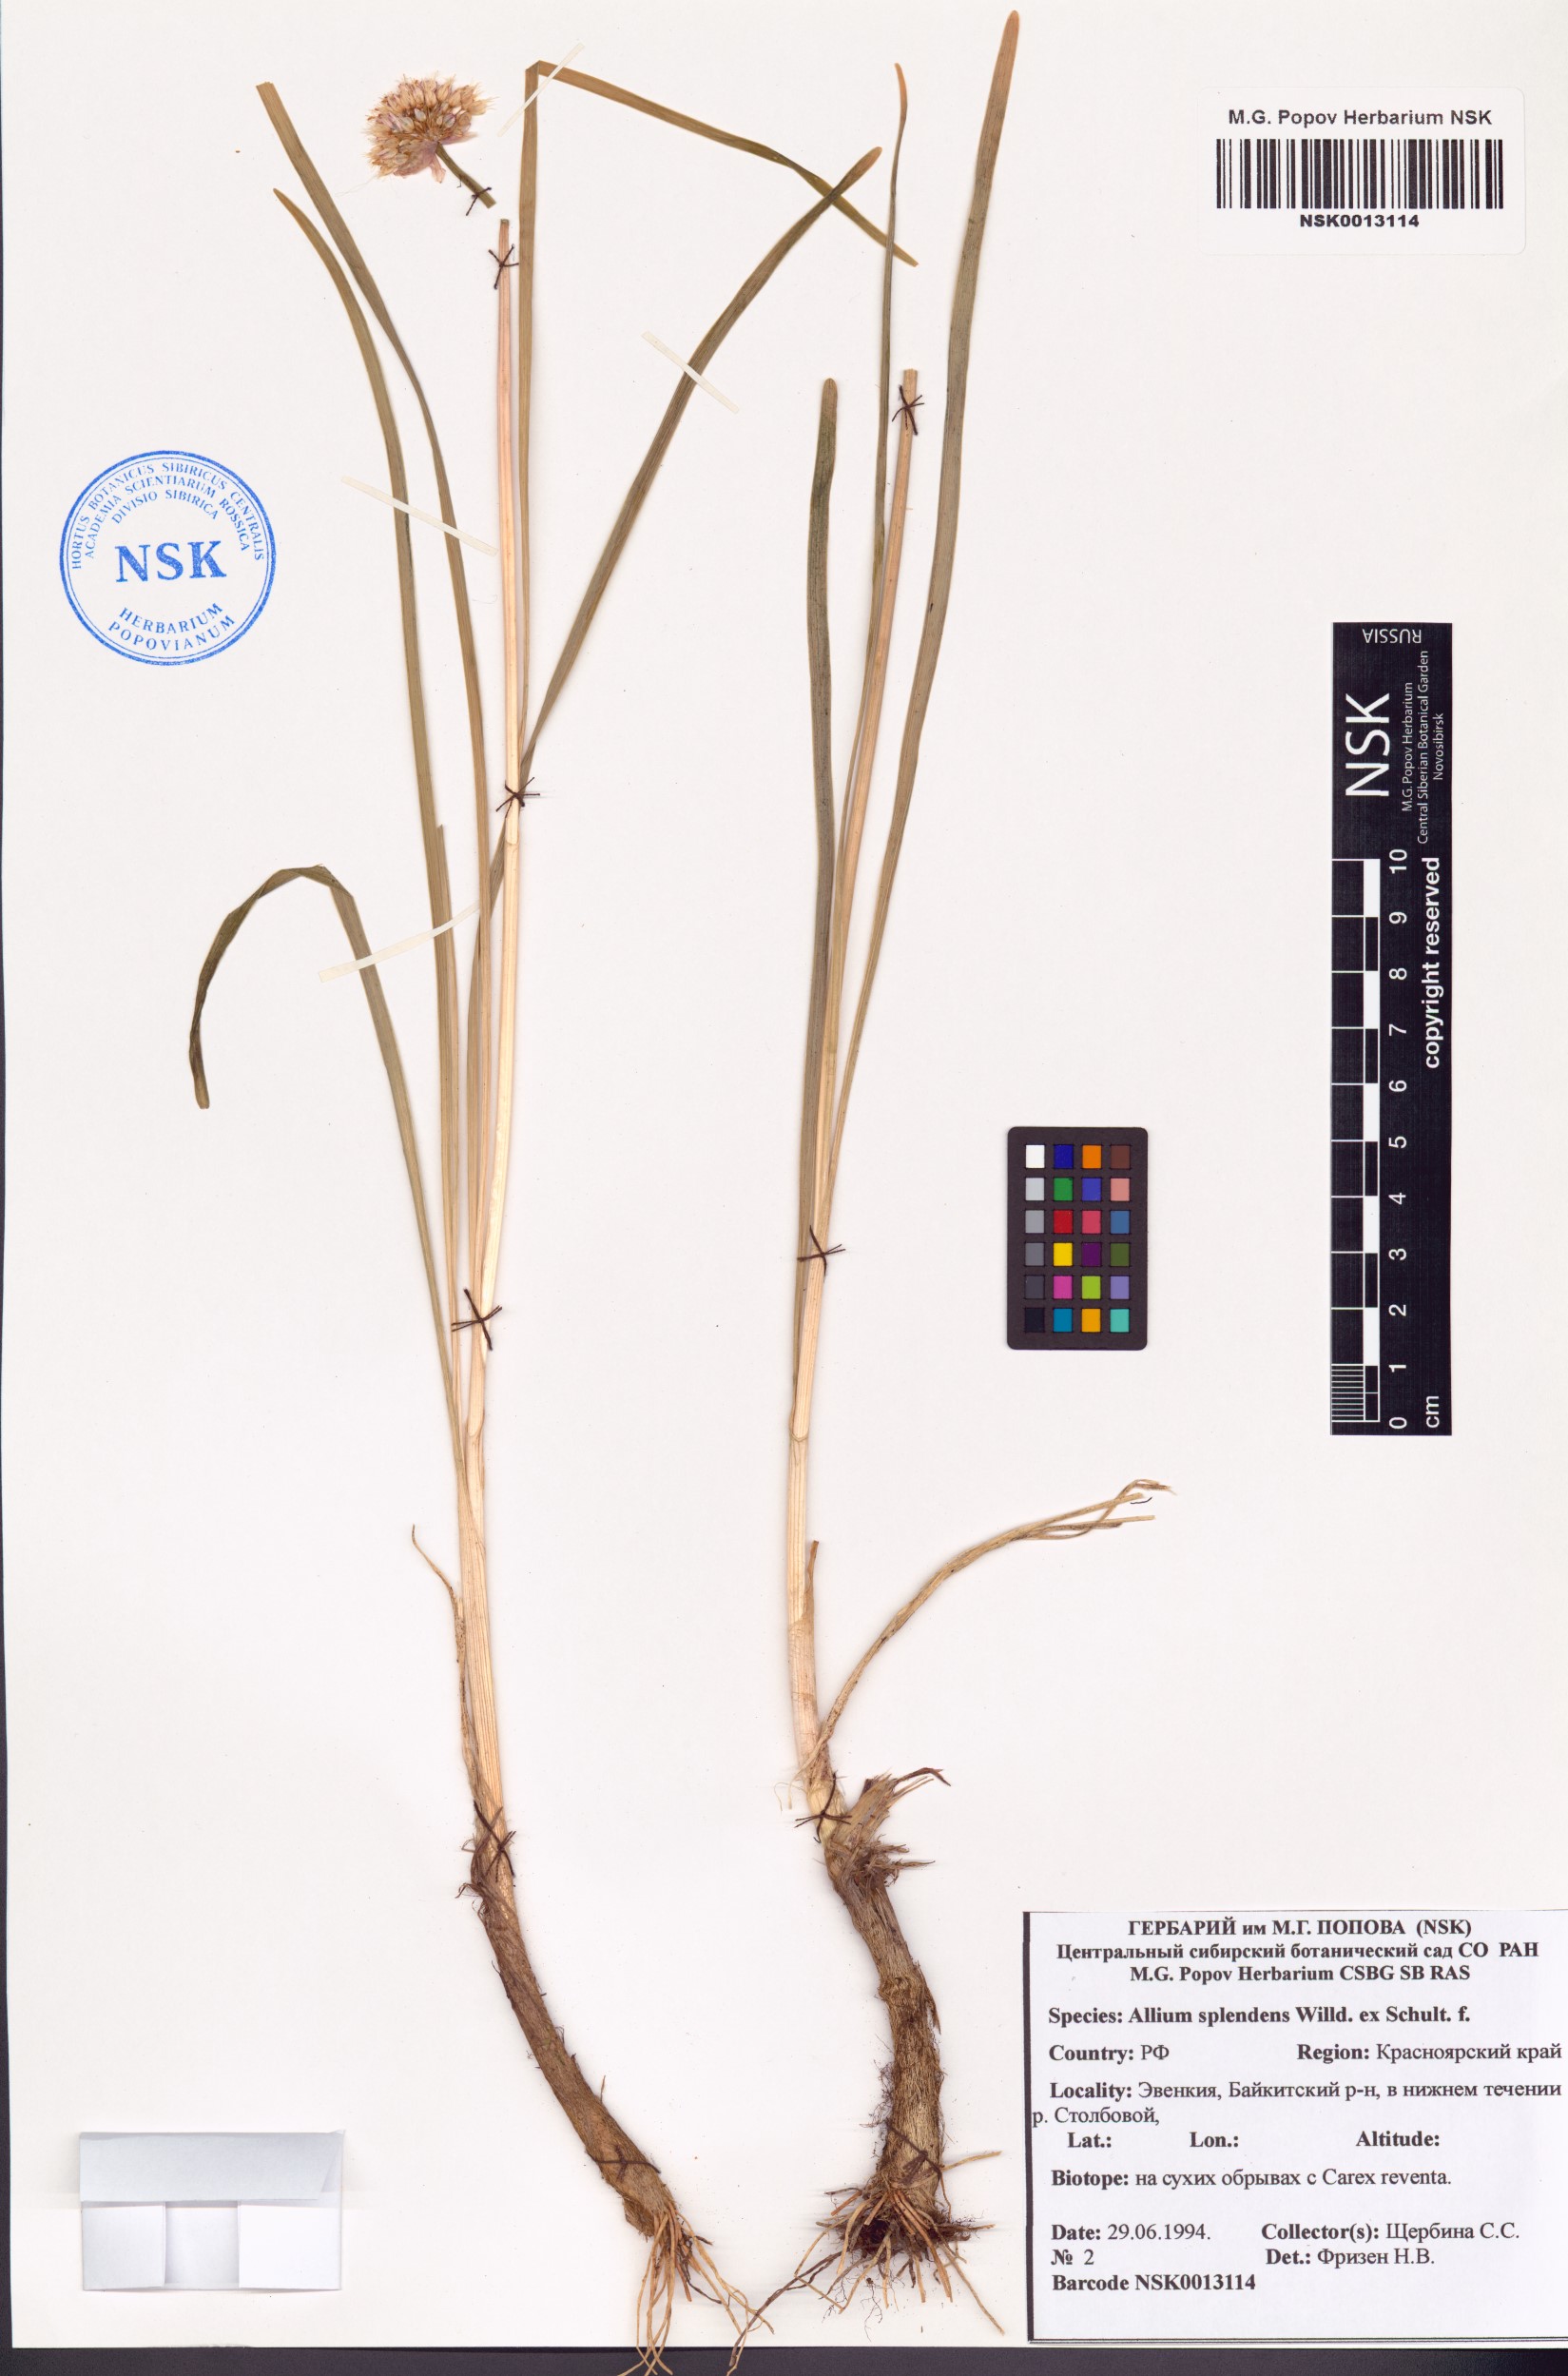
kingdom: Plantae
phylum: Tracheophyta
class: Liliopsida
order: Asparagales
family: Amaryllidaceae
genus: Allium
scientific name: Allium splendens
